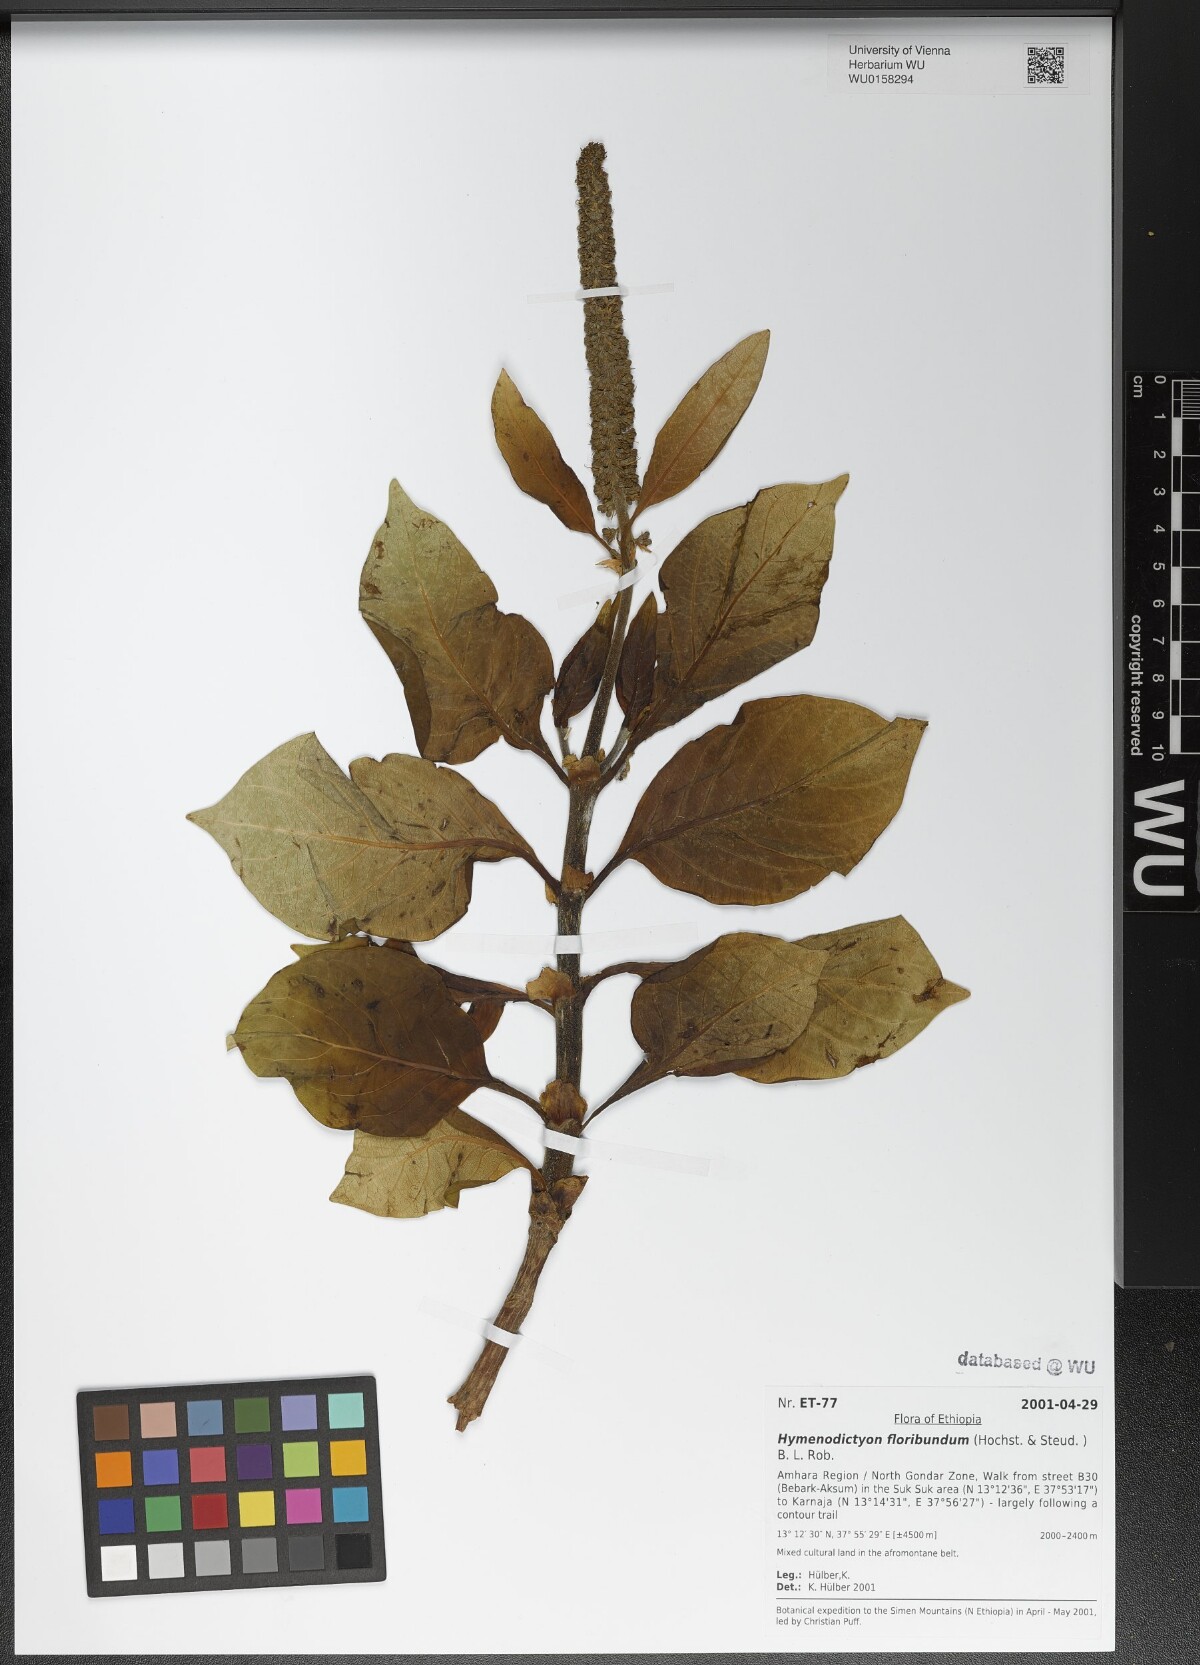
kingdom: Plantae
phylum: Tracheophyta
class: Magnoliopsida
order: Gentianales
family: Rubiaceae
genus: Hymenodictyon
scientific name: Hymenodictyon floribundum
